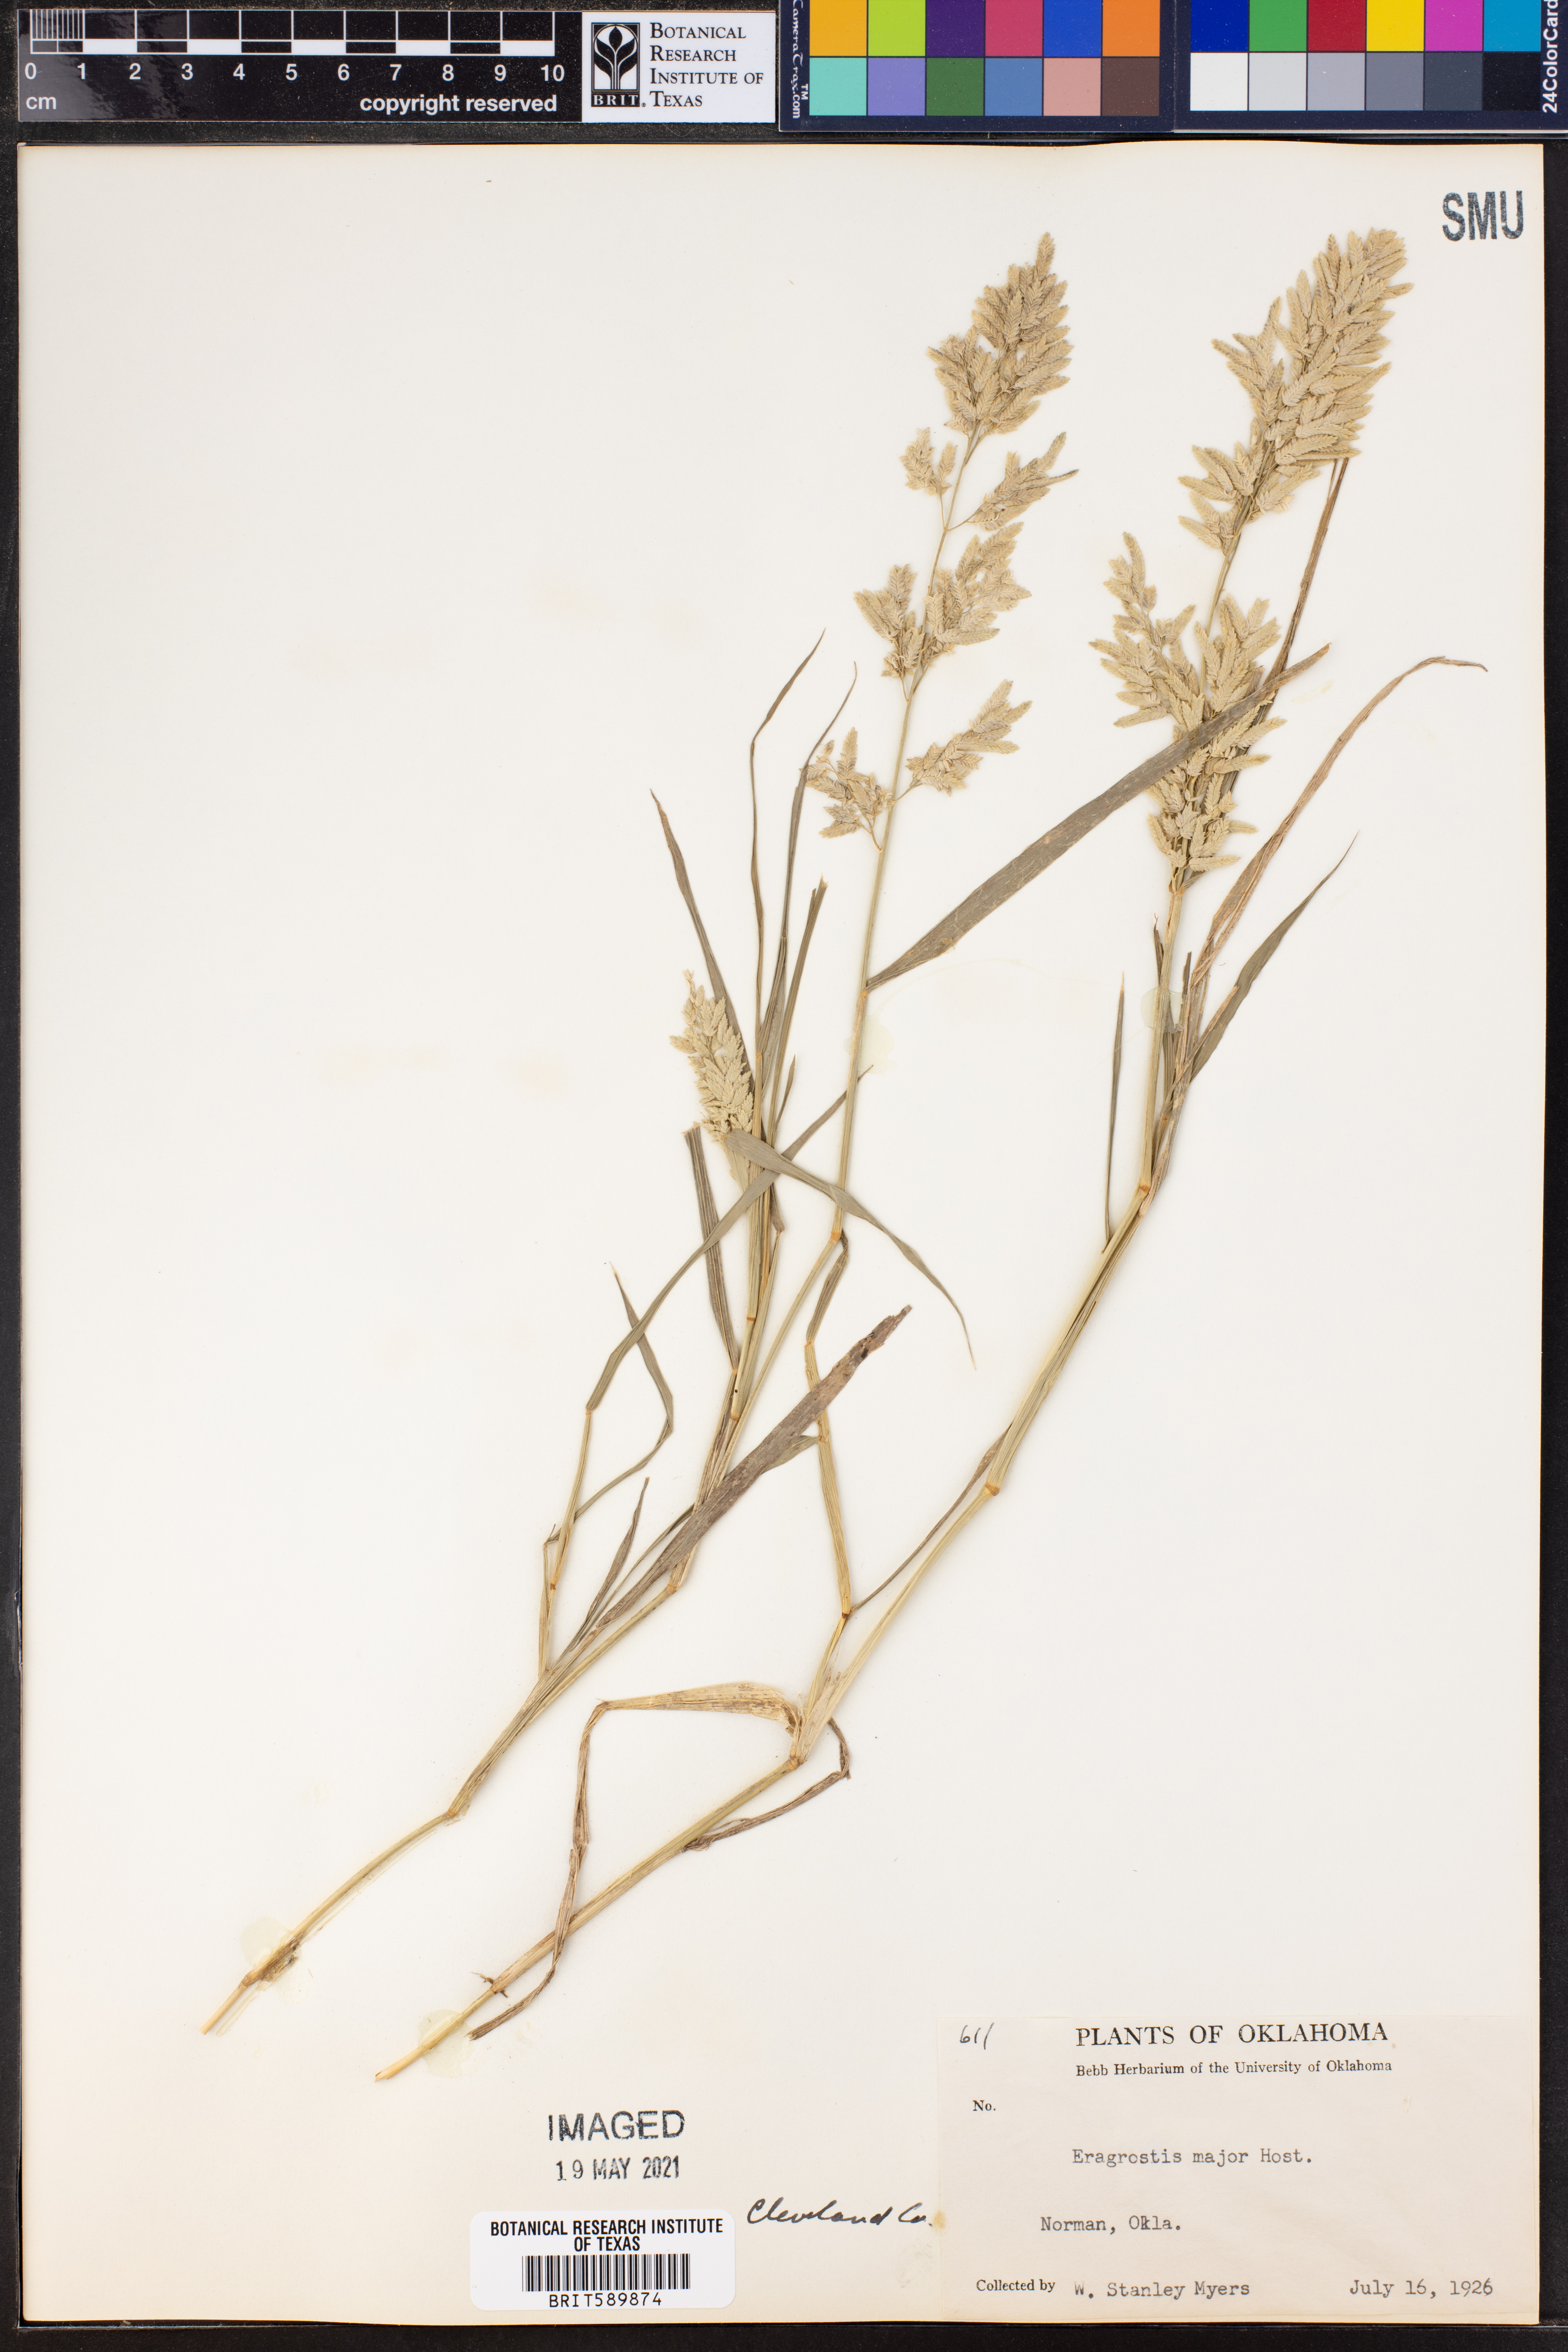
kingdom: Plantae
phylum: Tracheophyta
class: Liliopsida
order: Poales
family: Poaceae
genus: Eragrostis
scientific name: Eragrostis cilianensis
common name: Stinkgrass
